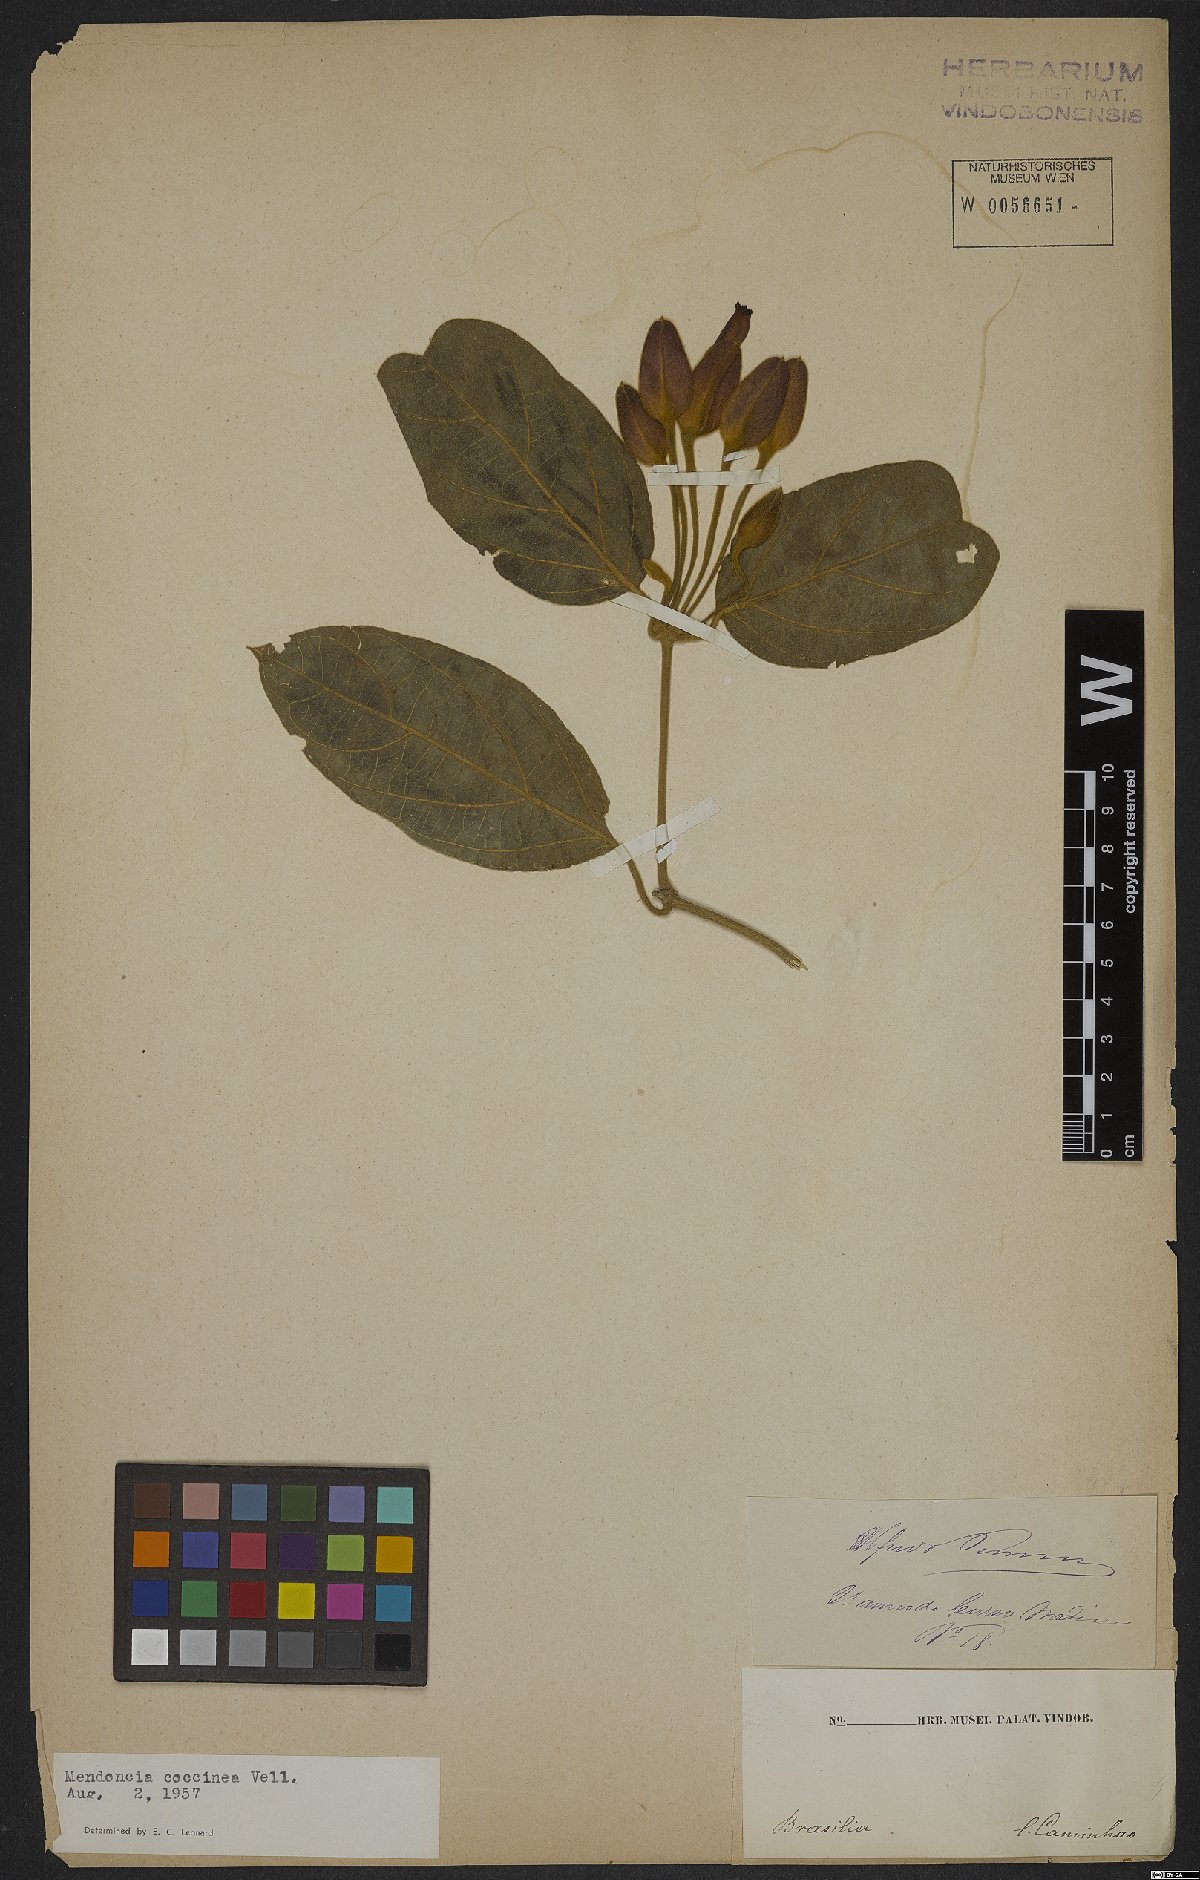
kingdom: Plantae
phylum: Tracheophyta
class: Magnoliopsida
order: Lamiales
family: Acanthaceae
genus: Mendoncia
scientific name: Mendoncia coccinea
